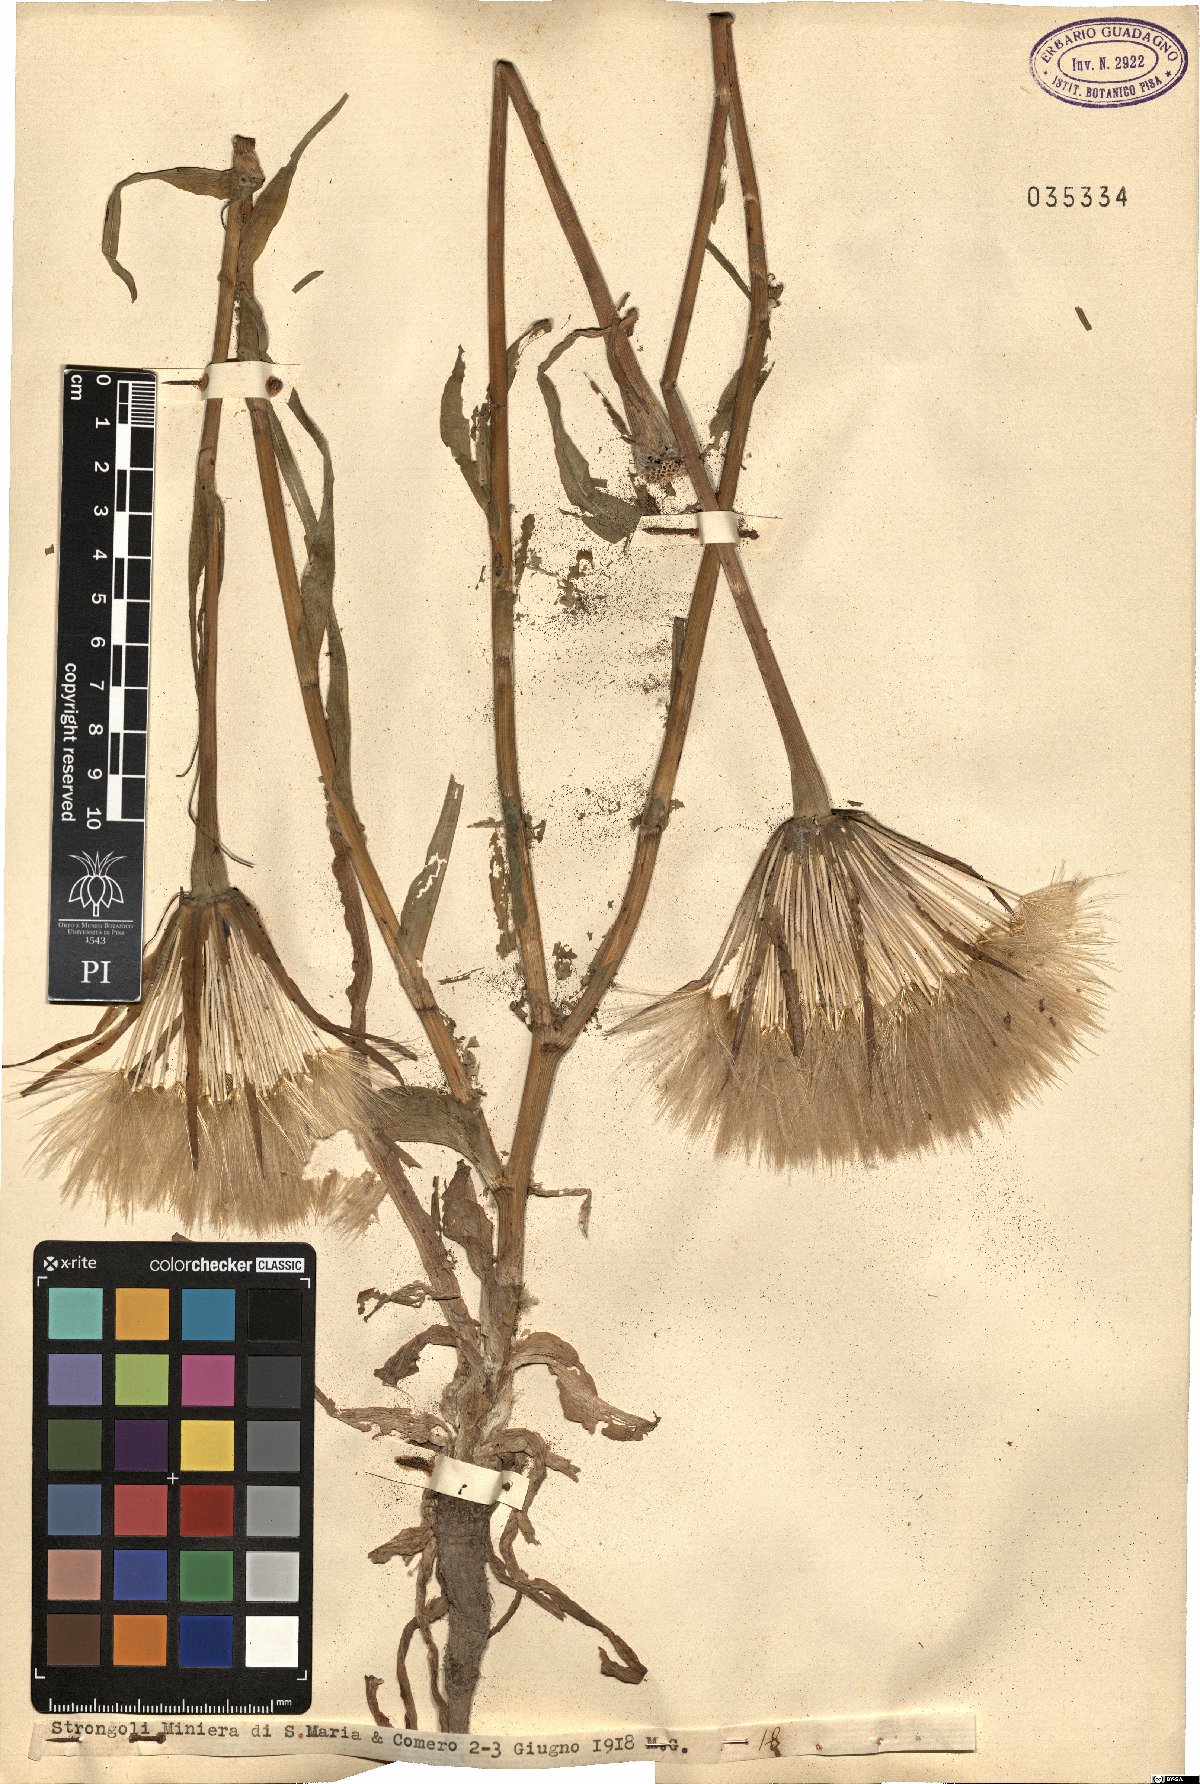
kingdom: Plantae
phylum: Tracheophyta
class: Magnoliopsida
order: Asterales
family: Asteraceae
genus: Geropogon
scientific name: Geropogon
